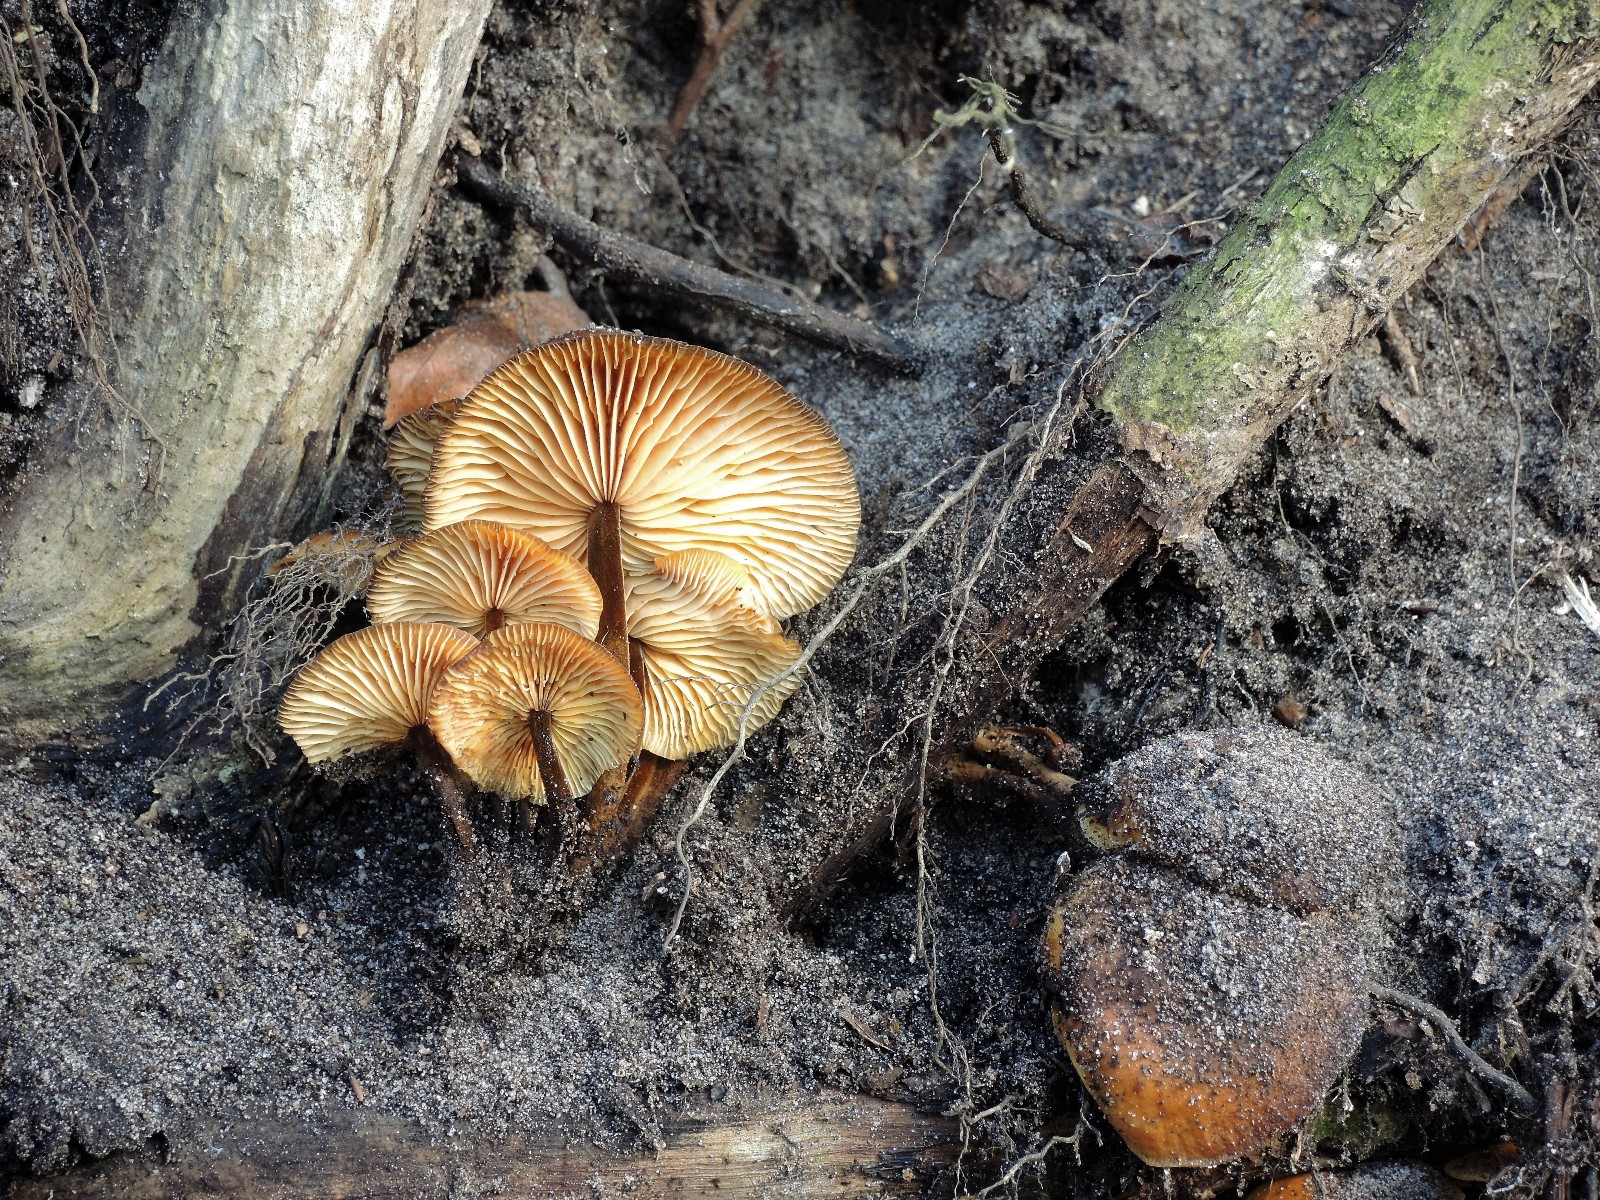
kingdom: Fungi
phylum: Basidiomycota
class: Agaricomycetes
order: Agaricales
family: Physalacriaceae
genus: Flammulina
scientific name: Flammulina velutipes
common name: gul fløjlsfod
